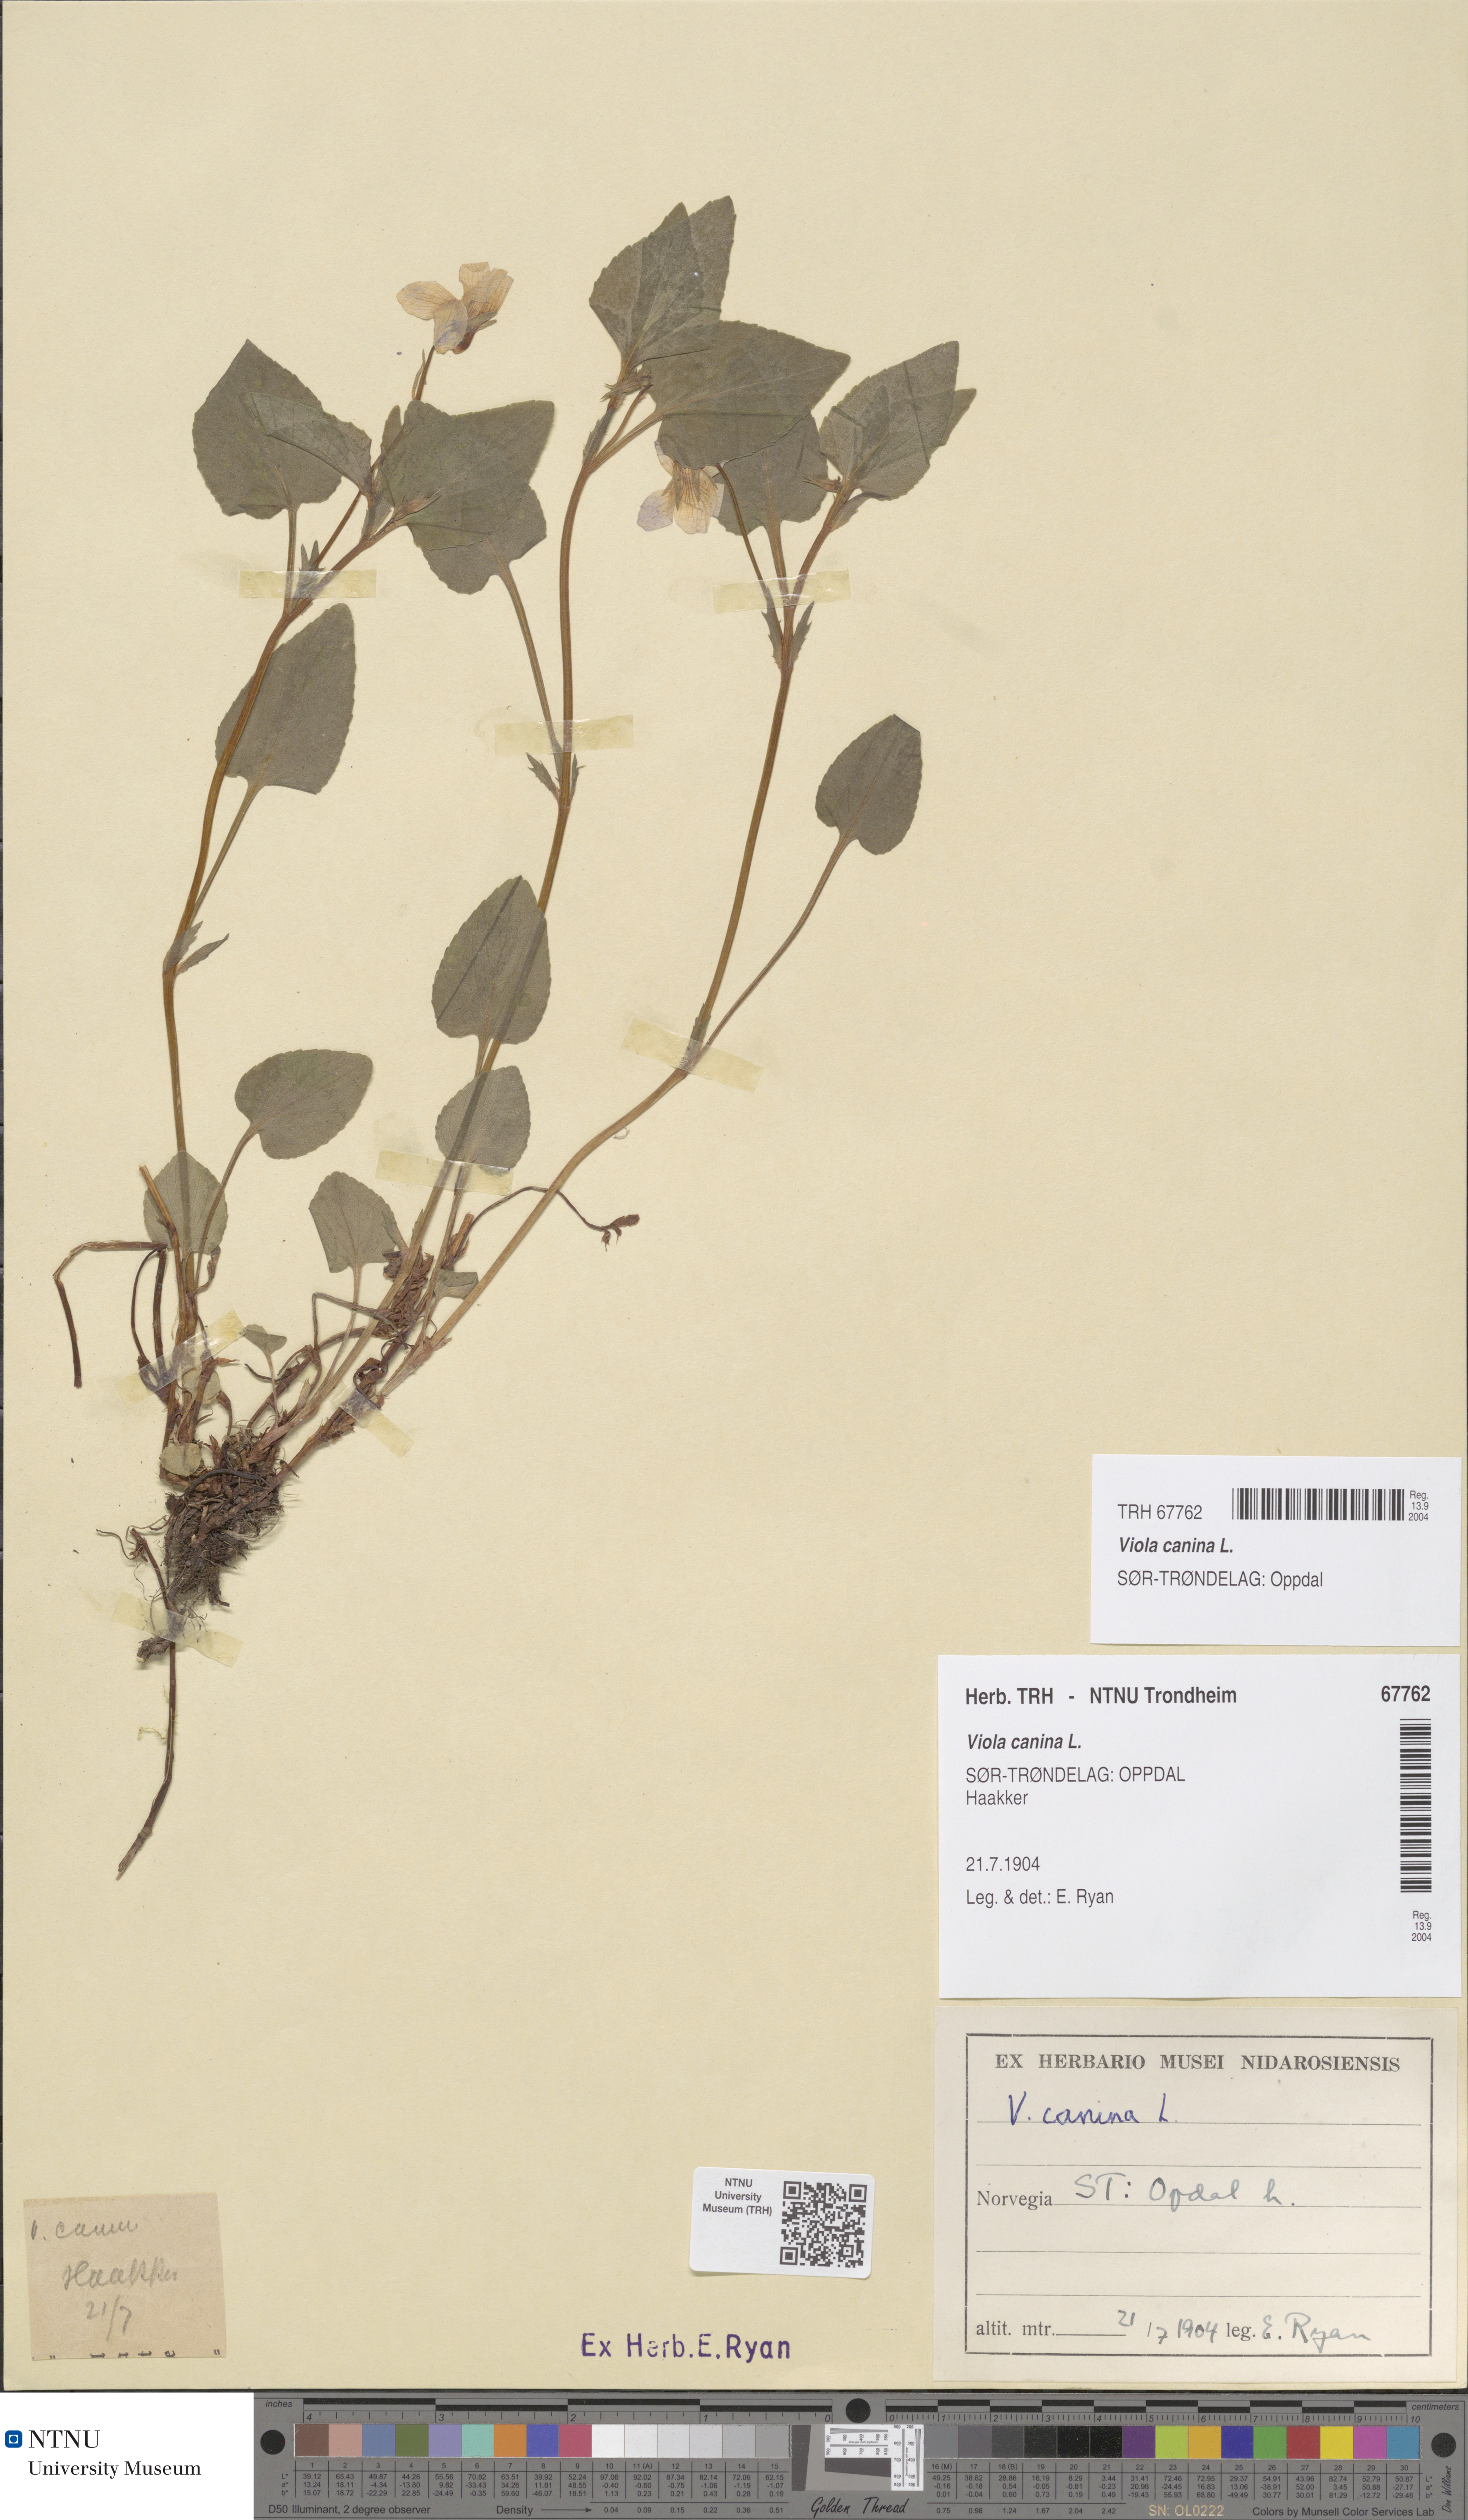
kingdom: Plantae
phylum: Tracheophyta
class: Magnoliopsida
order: Malpighiales
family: Violaceae
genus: Viola
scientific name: Viola canina
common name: Heath dog-violet
